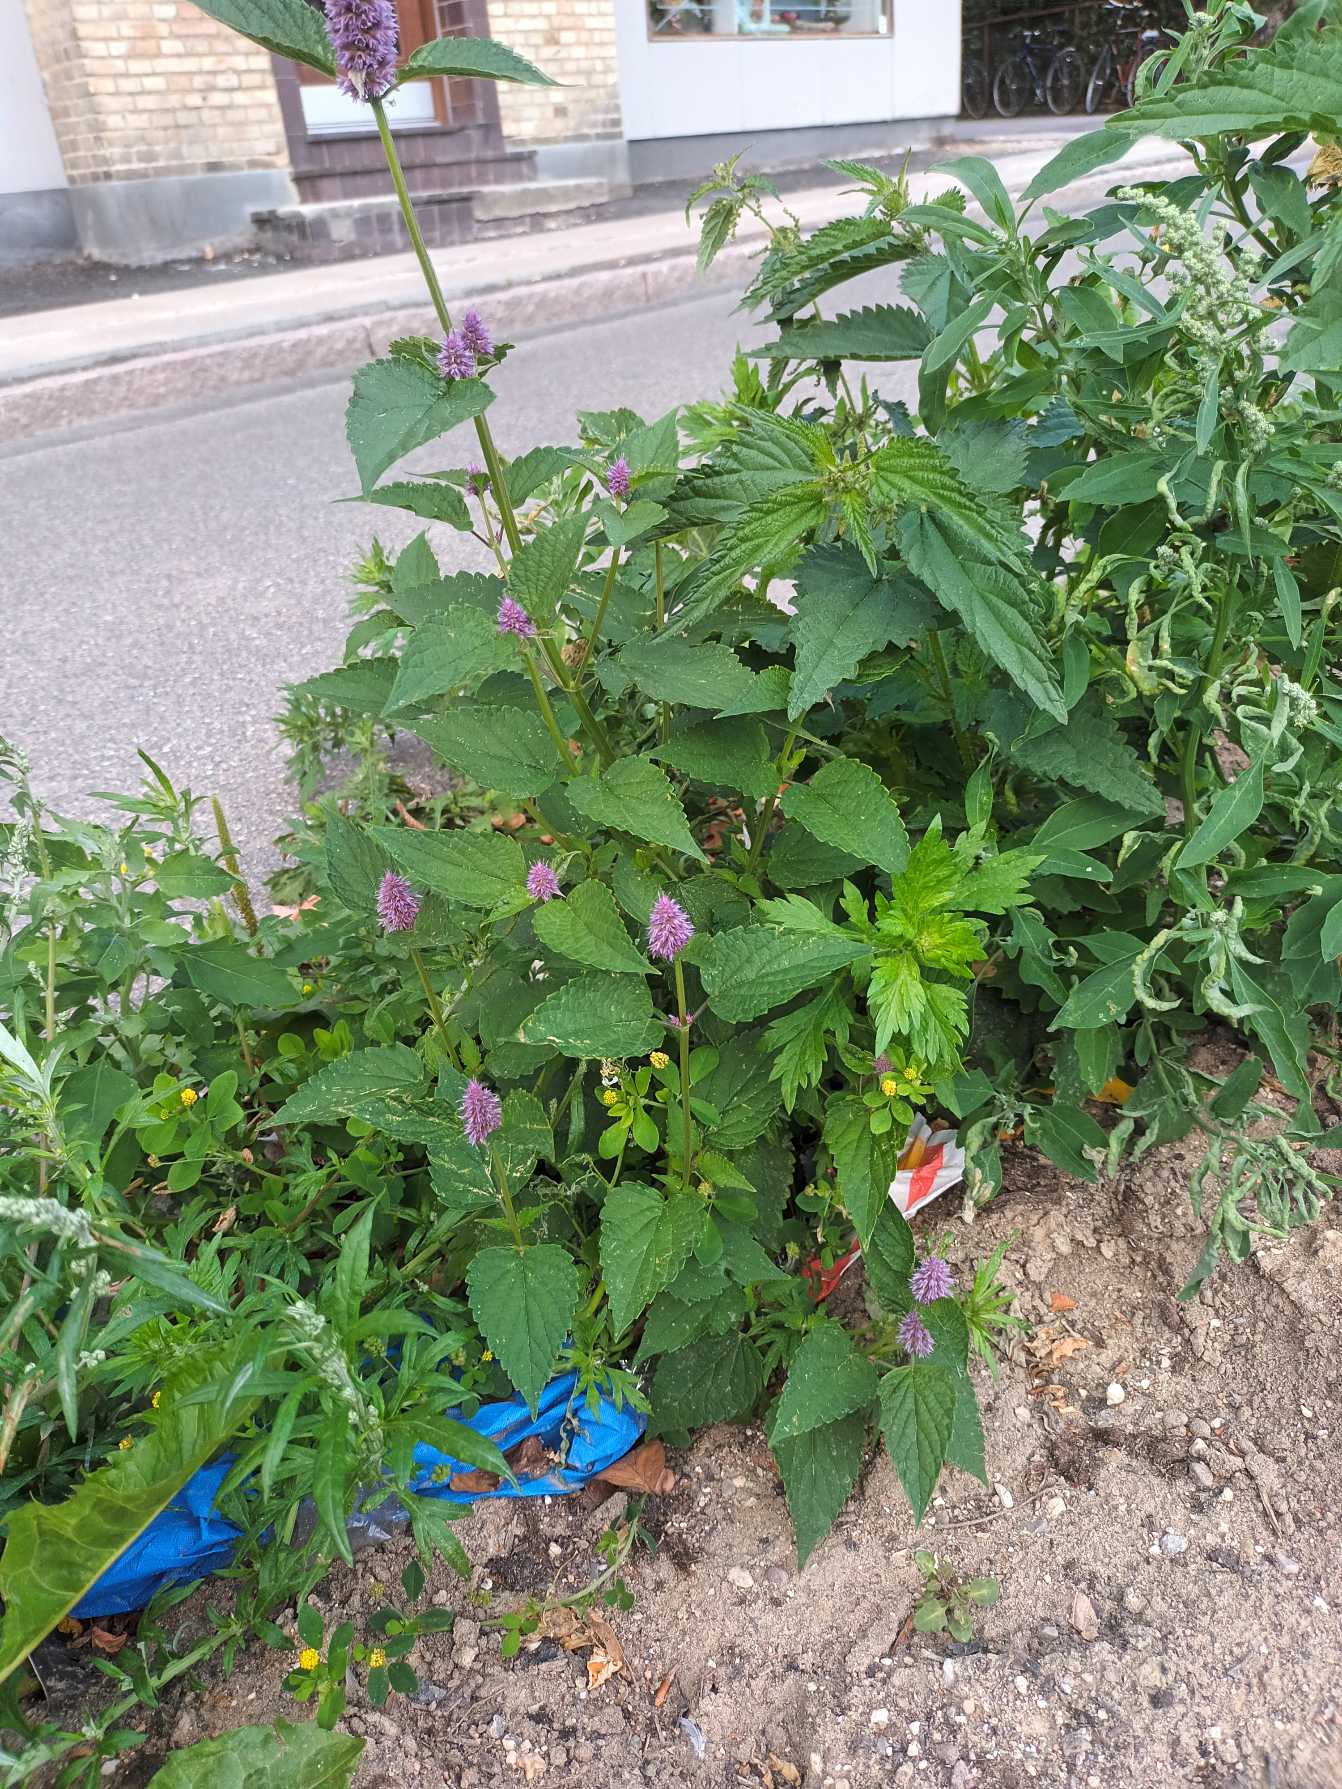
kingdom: Plantae
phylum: Tracheophyta
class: Magnoliopsida
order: Lamiales
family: Lamiaceae
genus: Agastache
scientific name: Agastache rugosa
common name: Koreansk anisisop
